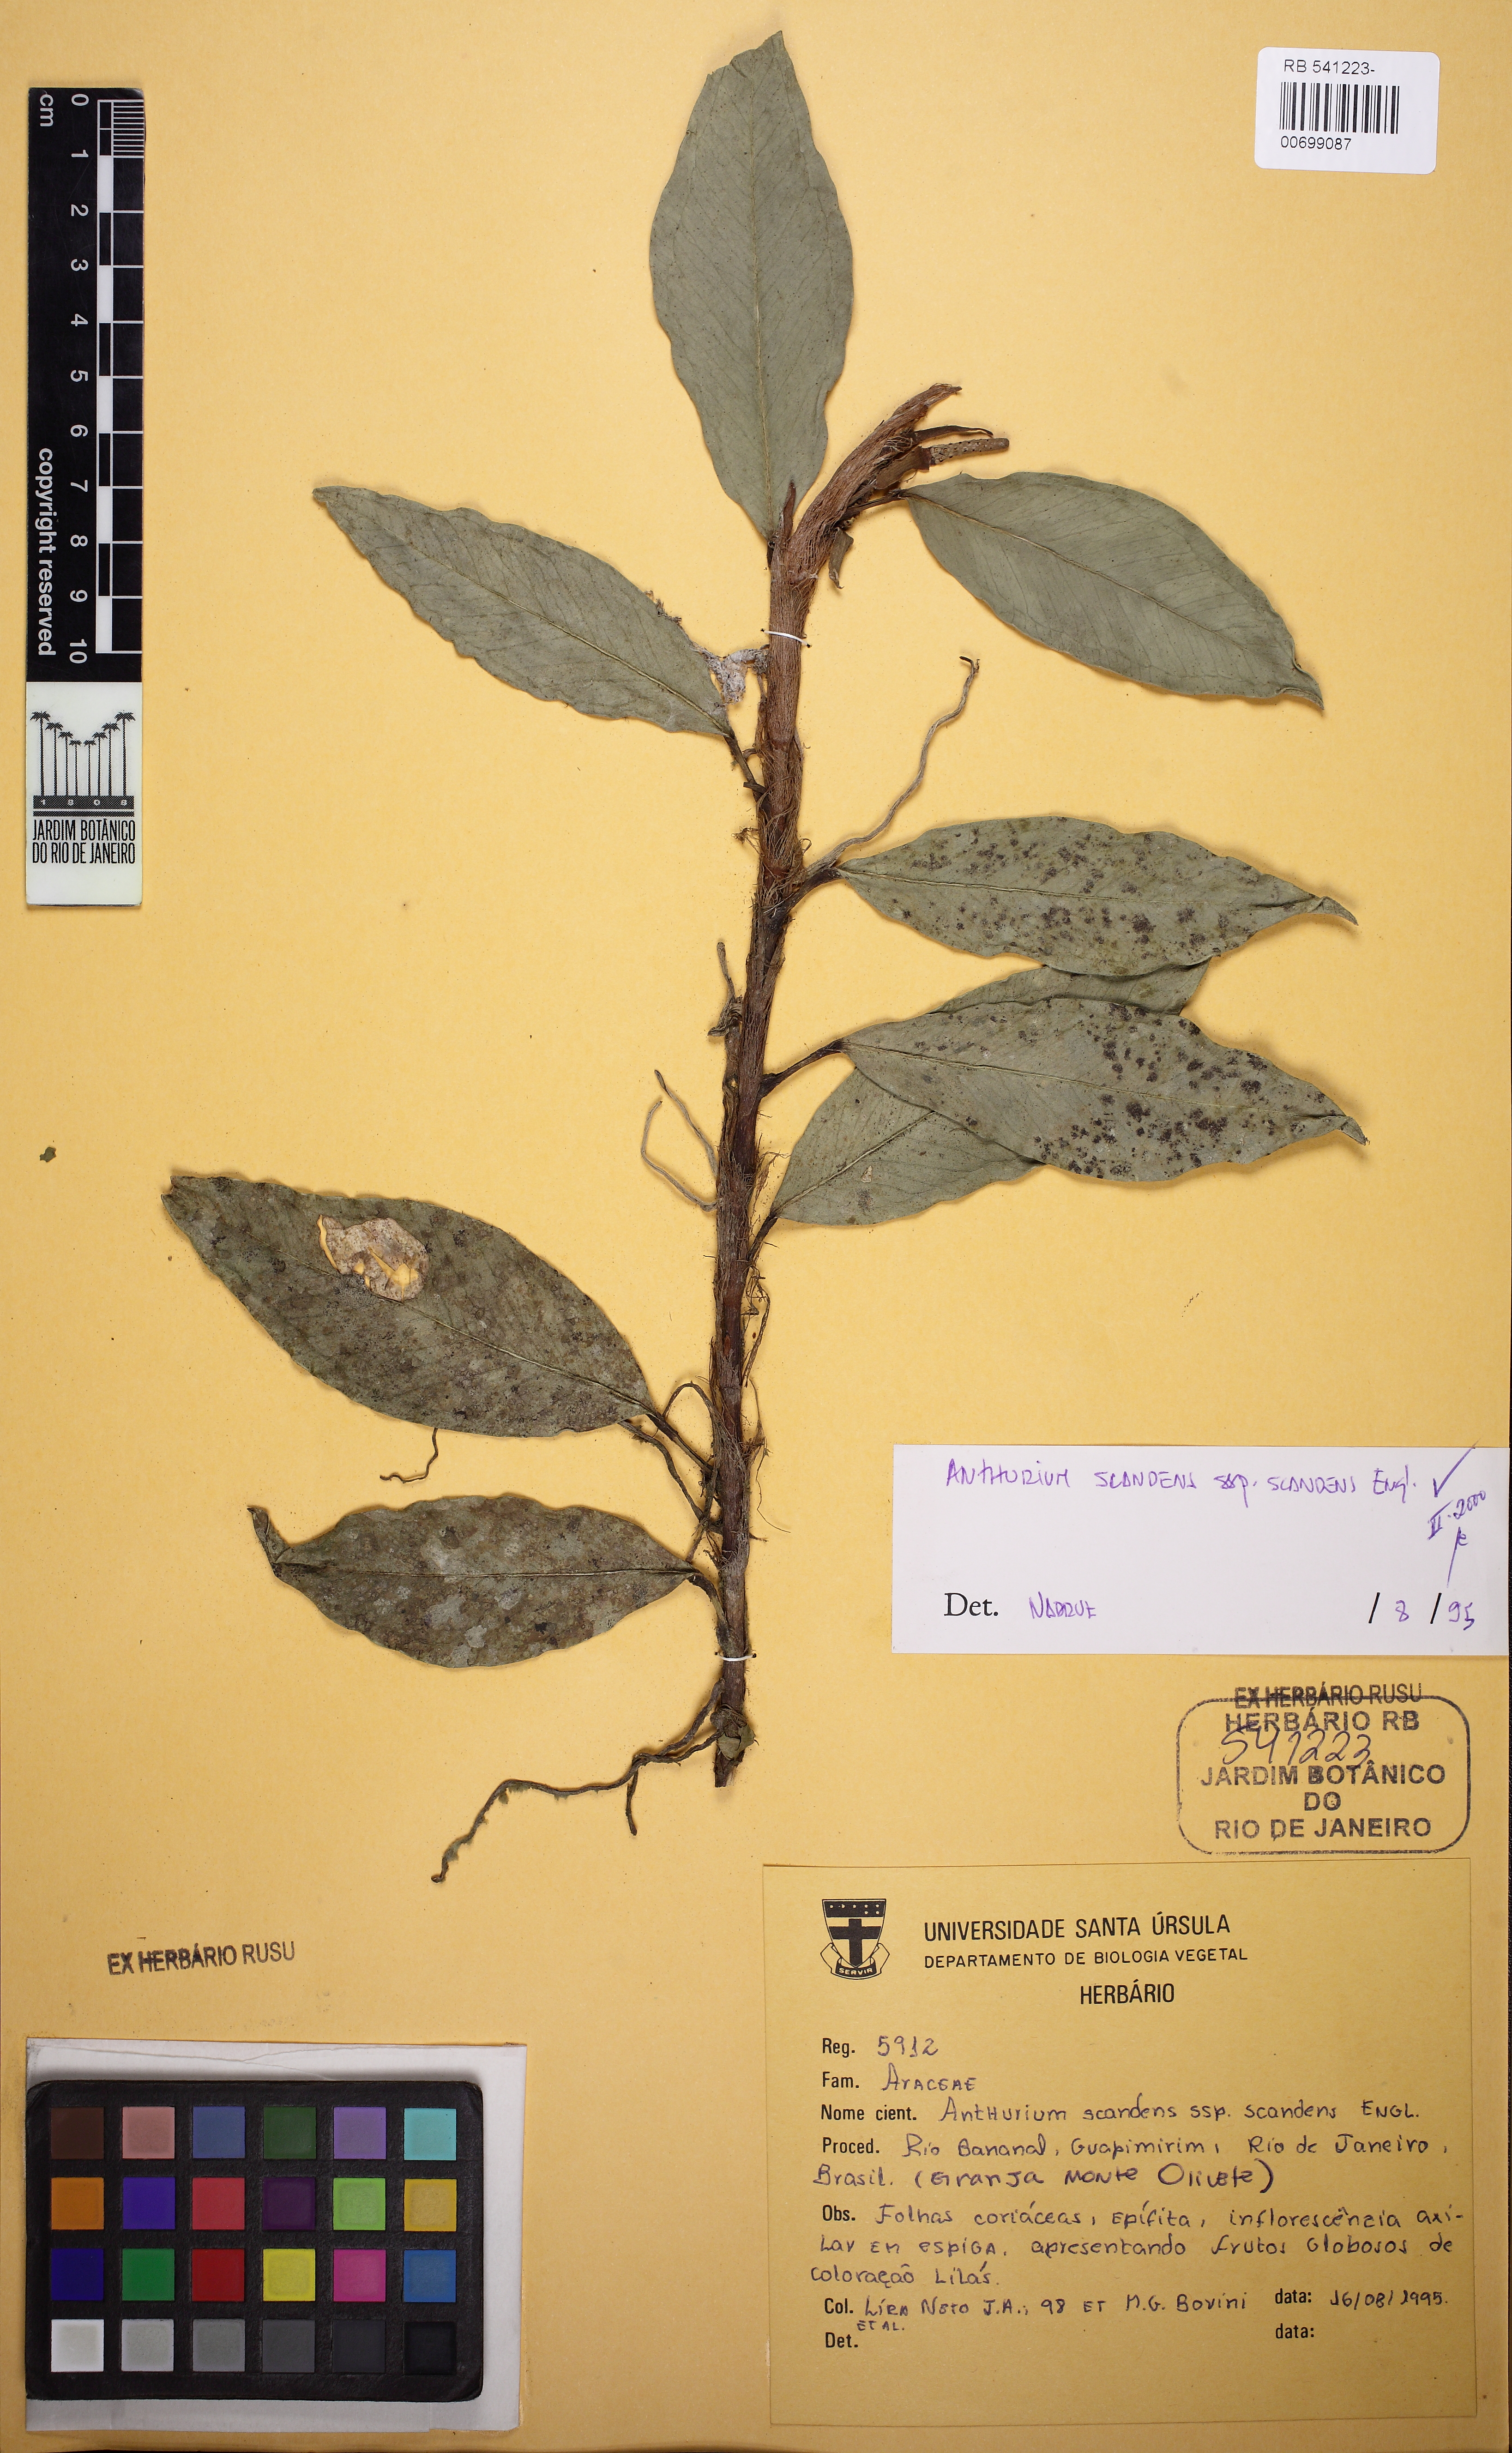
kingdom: Plantae
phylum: Tracheophyta
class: Liliopsida
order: Alismatales
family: Araceae
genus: Anthurium
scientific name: Anthurium scandens
